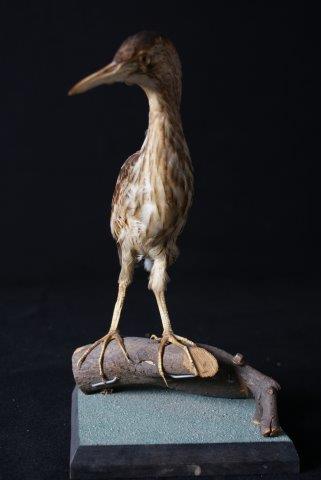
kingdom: Animalia
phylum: Chordata
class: Aves
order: Pelecaniformes
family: Ardeidae
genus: Ixobrychus
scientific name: Ixobrychus minutus
